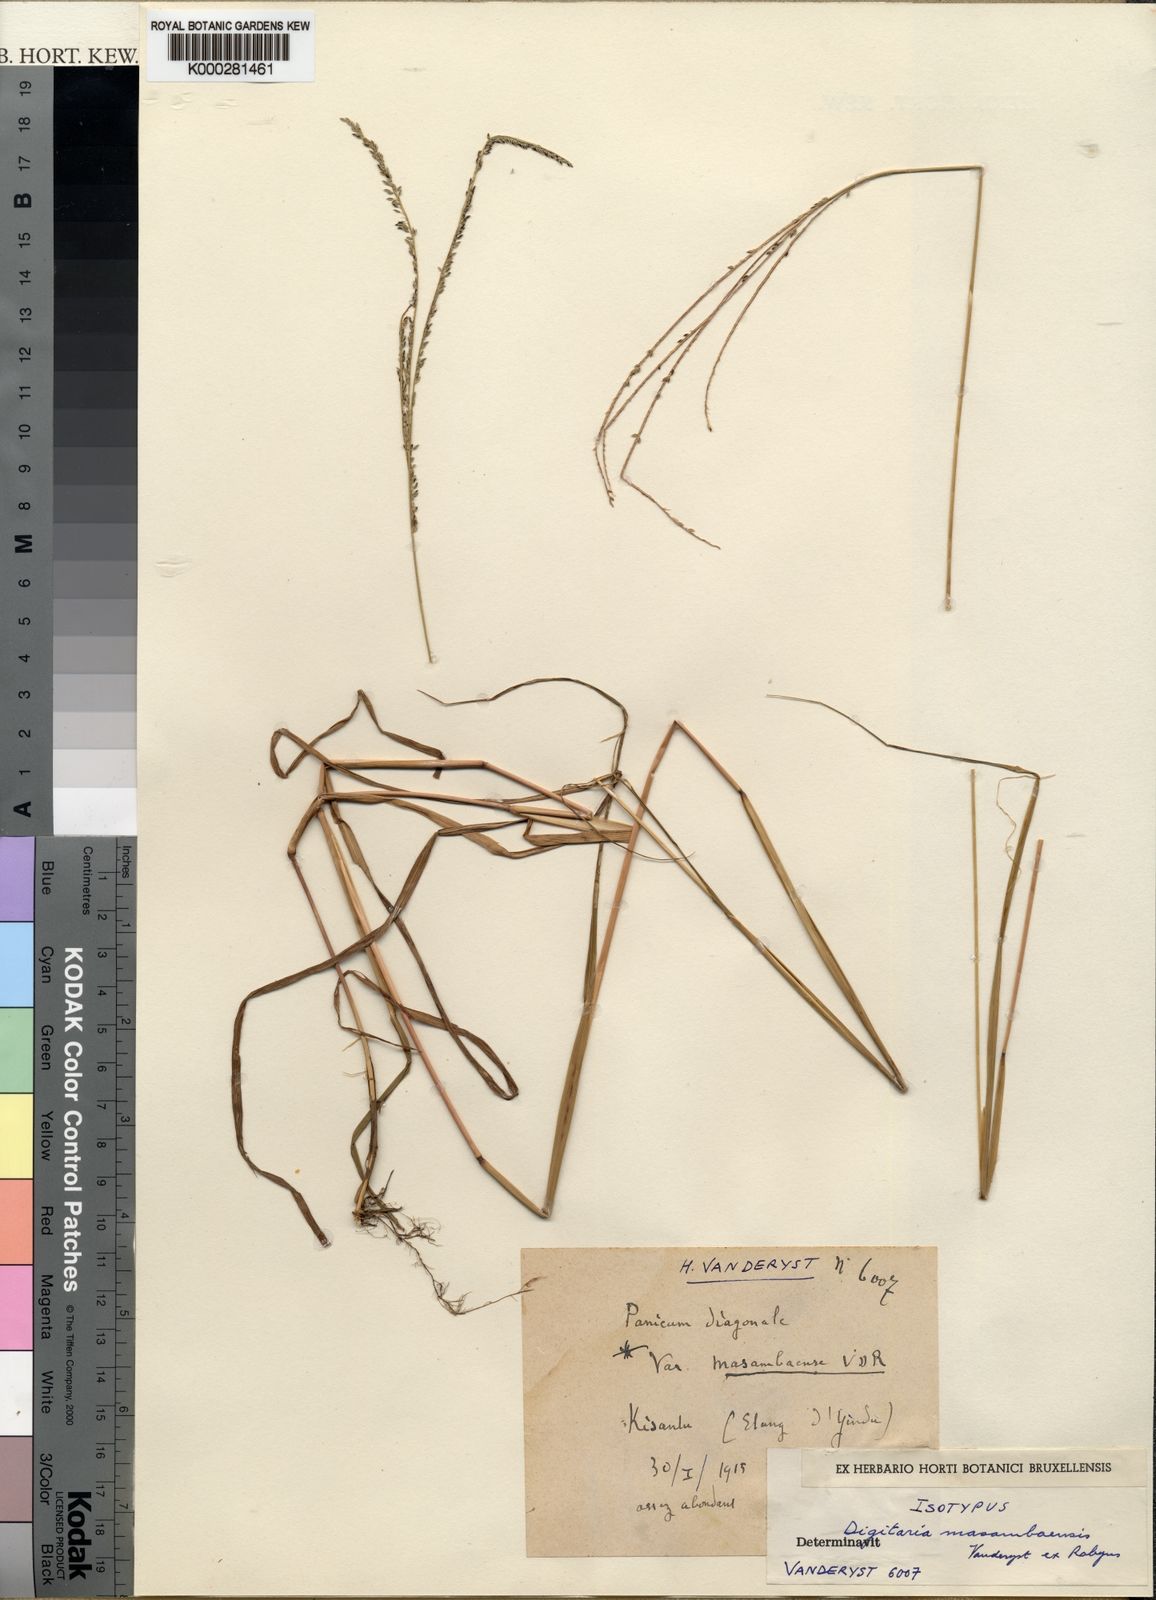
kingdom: Plantae
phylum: Tracheophyta
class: Liliopsida
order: Poales
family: Poaceae
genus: Digitaria
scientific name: Digitaria
